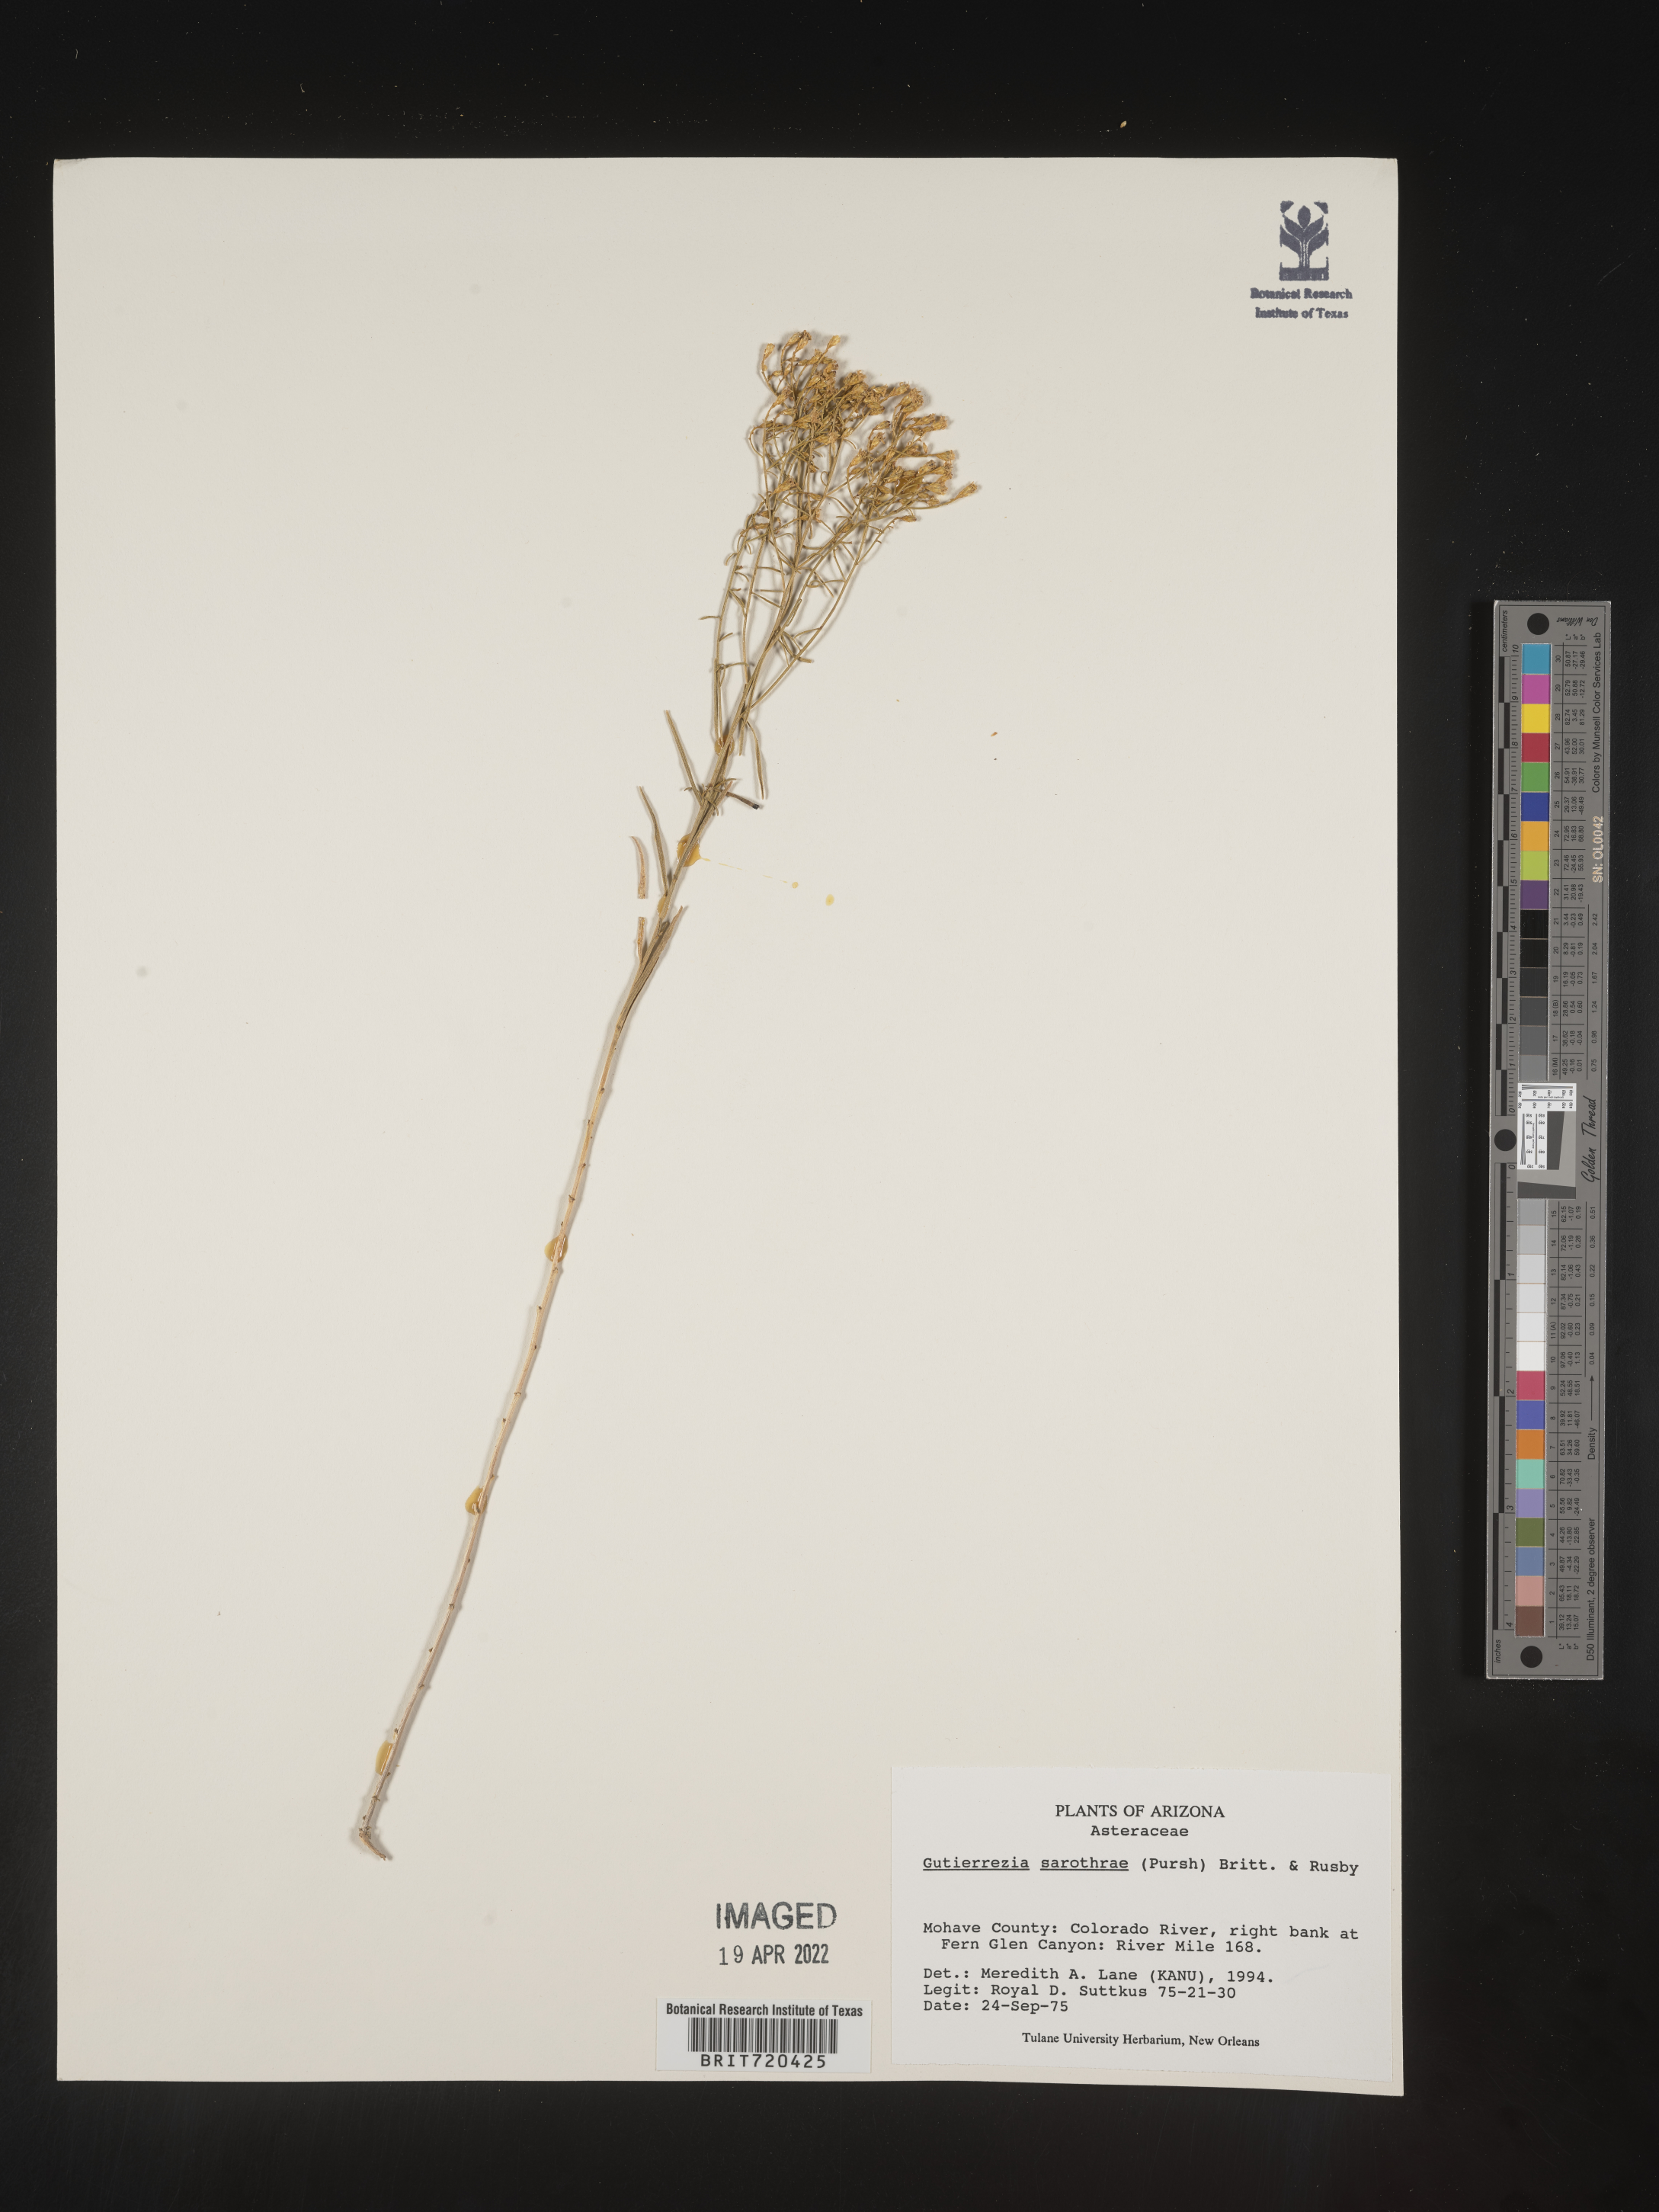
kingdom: Plantae
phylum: Tracheophyta
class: Magnoliopsida
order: Asterales
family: Asteraceae
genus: Gutierrezia
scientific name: Gutierrezia sarothrae
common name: Broom snakeweed
